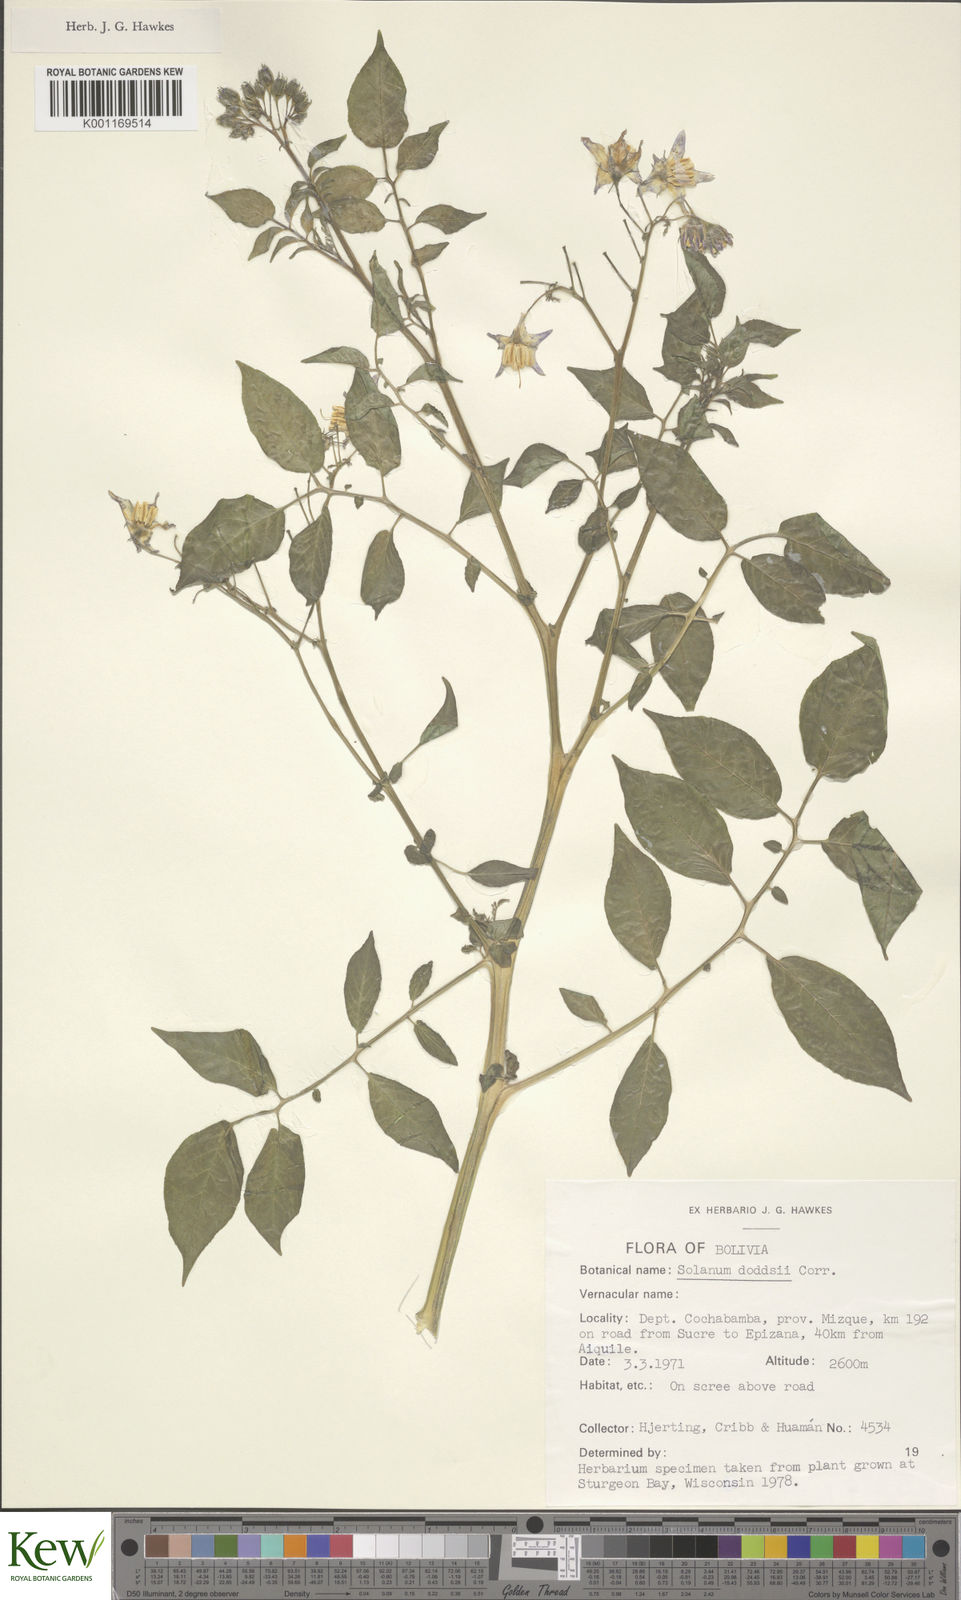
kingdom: Plantae
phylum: Tracheophyta
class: Magnoliopsida
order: Solanales
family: Solanaceae
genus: Solanum
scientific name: Solanum doddsii
